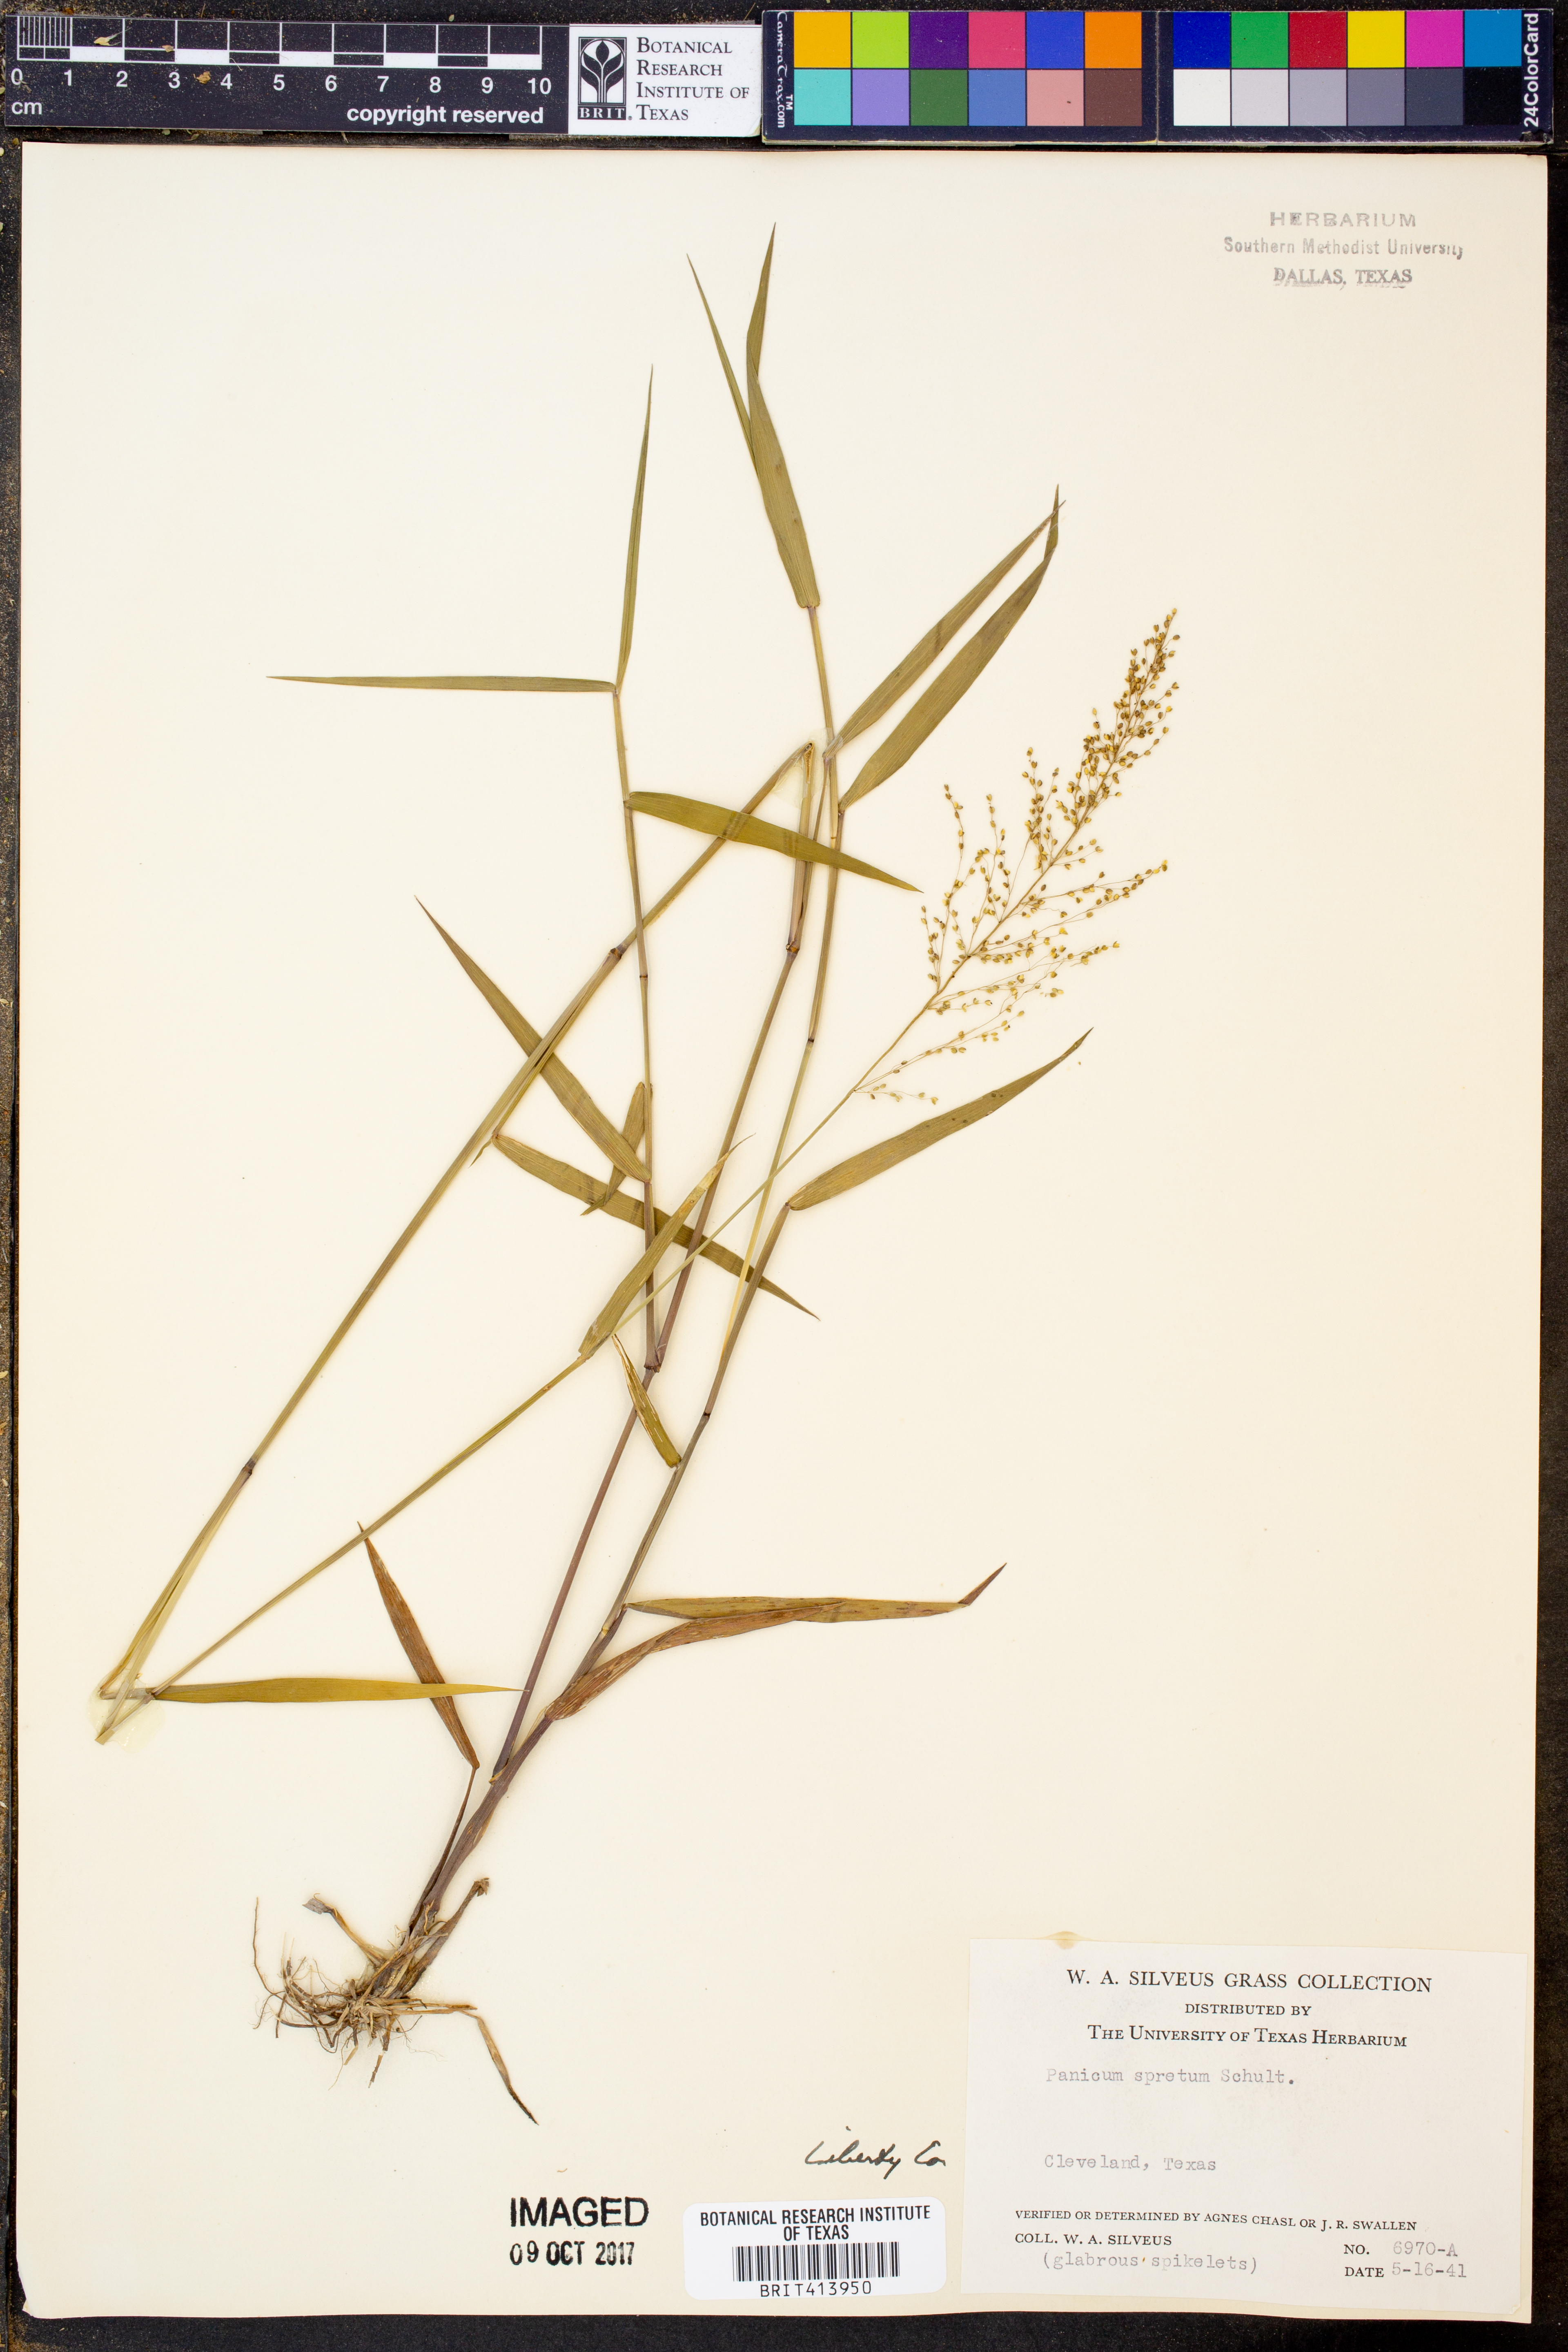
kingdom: Plantae
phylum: Tracheophyta
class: Liliopsida
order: Poales
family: Poaceae
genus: Dichanthelium
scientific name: Dichanthelium spretum
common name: Eaton's panicgrass
